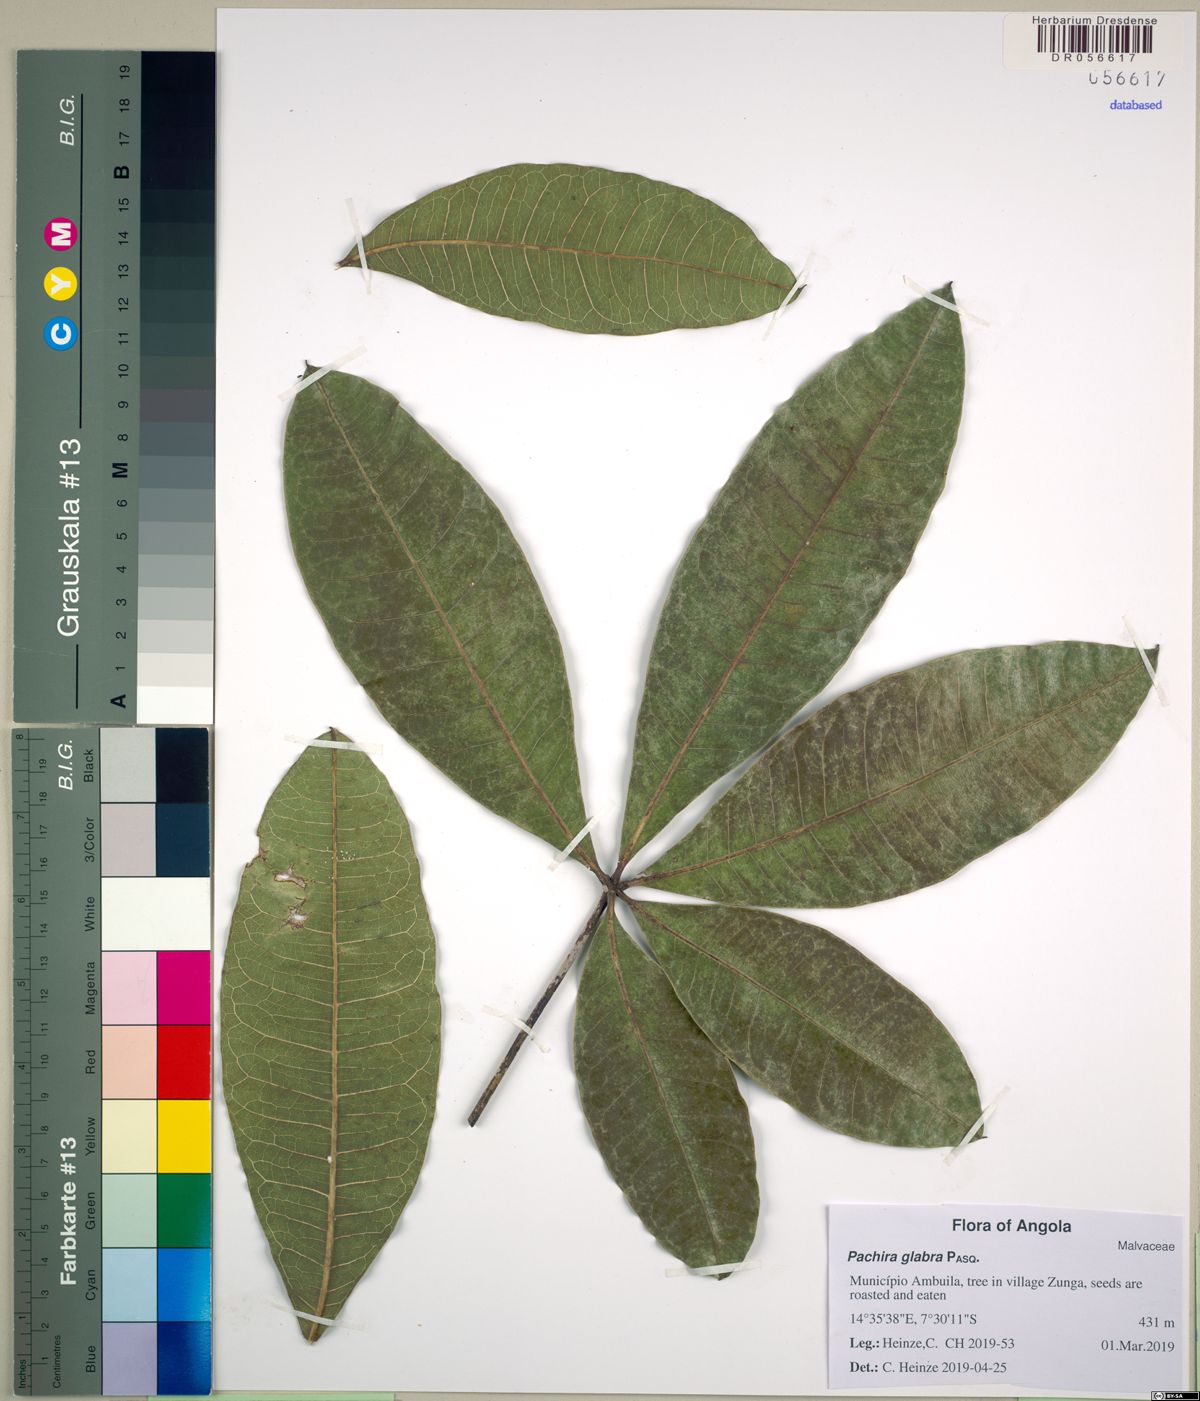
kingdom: Plantae
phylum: Tracheophyta
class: Magnoliopsida
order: Malvales
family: Malvaceae
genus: Pachira
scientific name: Pachira glabra
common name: Moneytree
